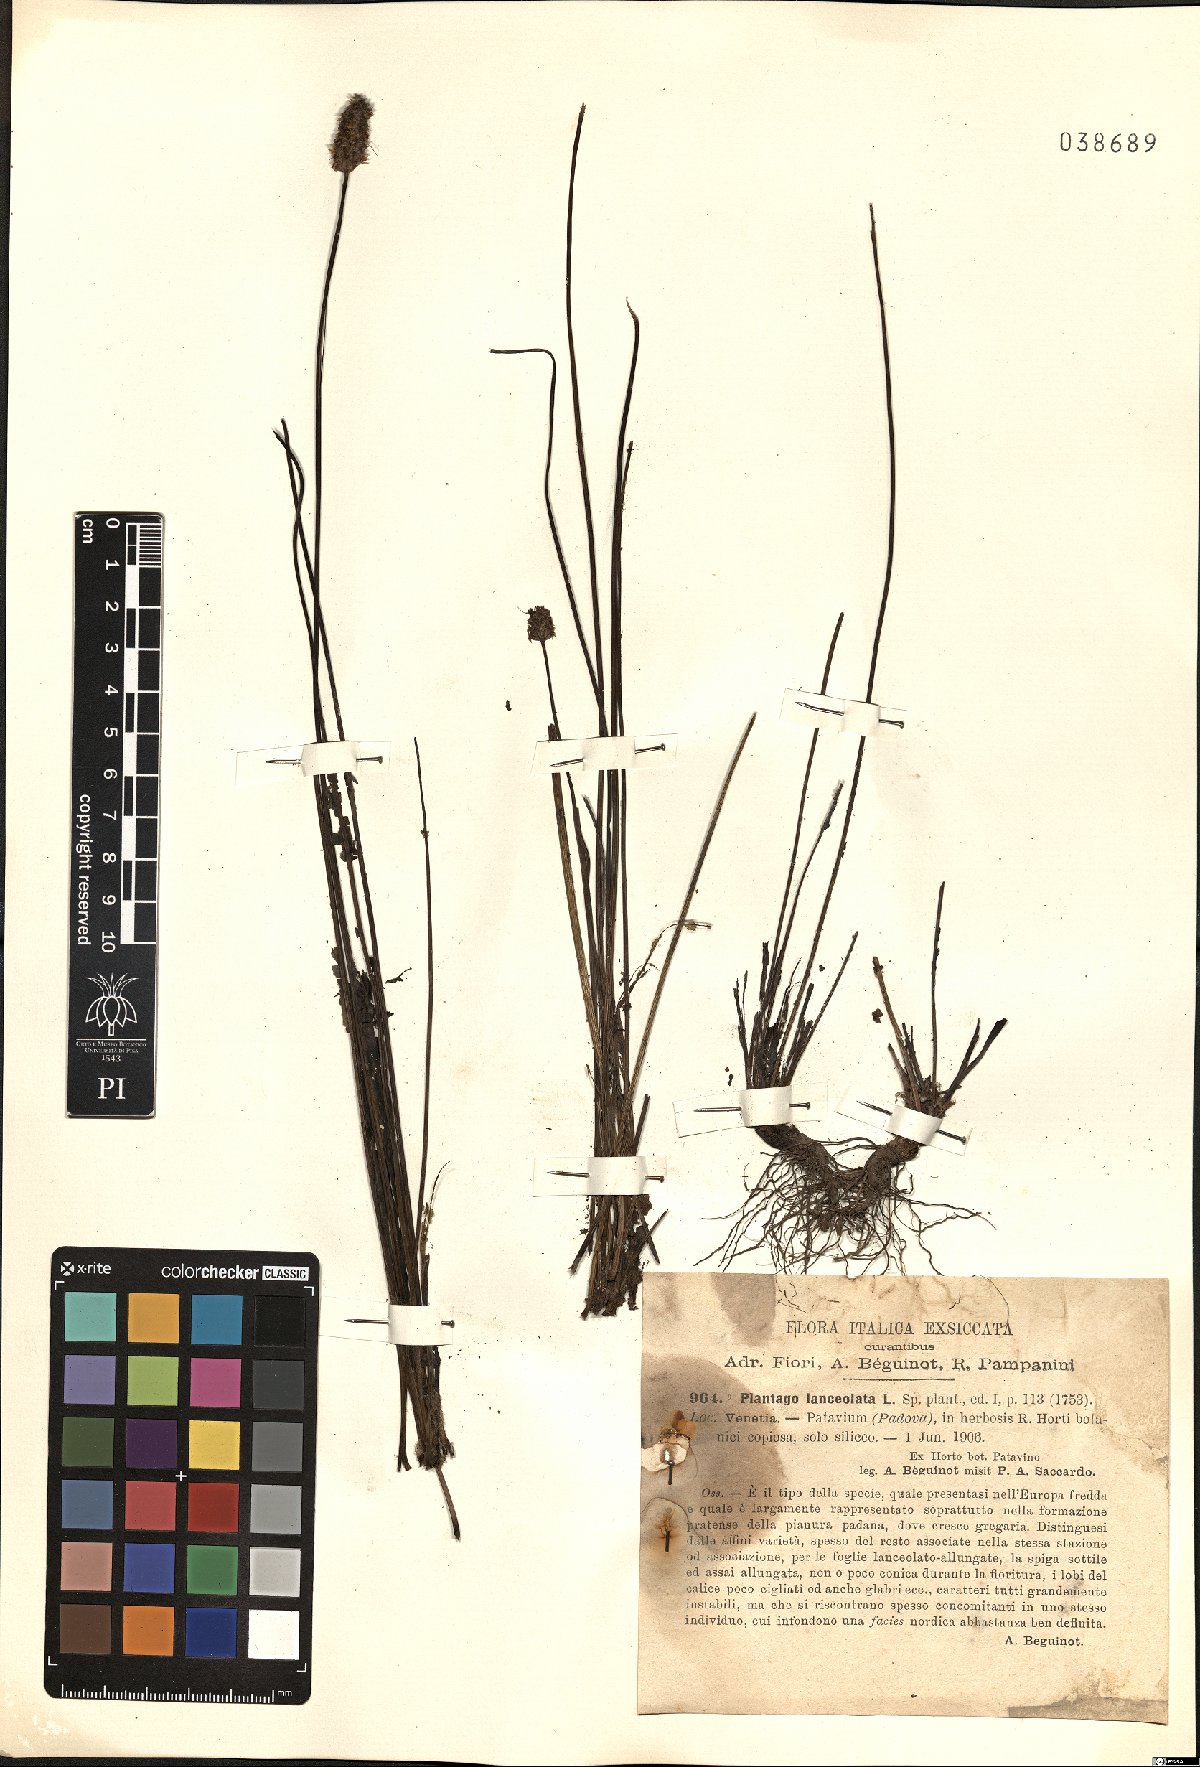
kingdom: Plantae
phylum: Tracheophyta
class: Magnoliopsida
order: Lamiales
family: Plantaginaceae
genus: Plantago
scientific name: Plantago lanceolata
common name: Ribwort plantain
